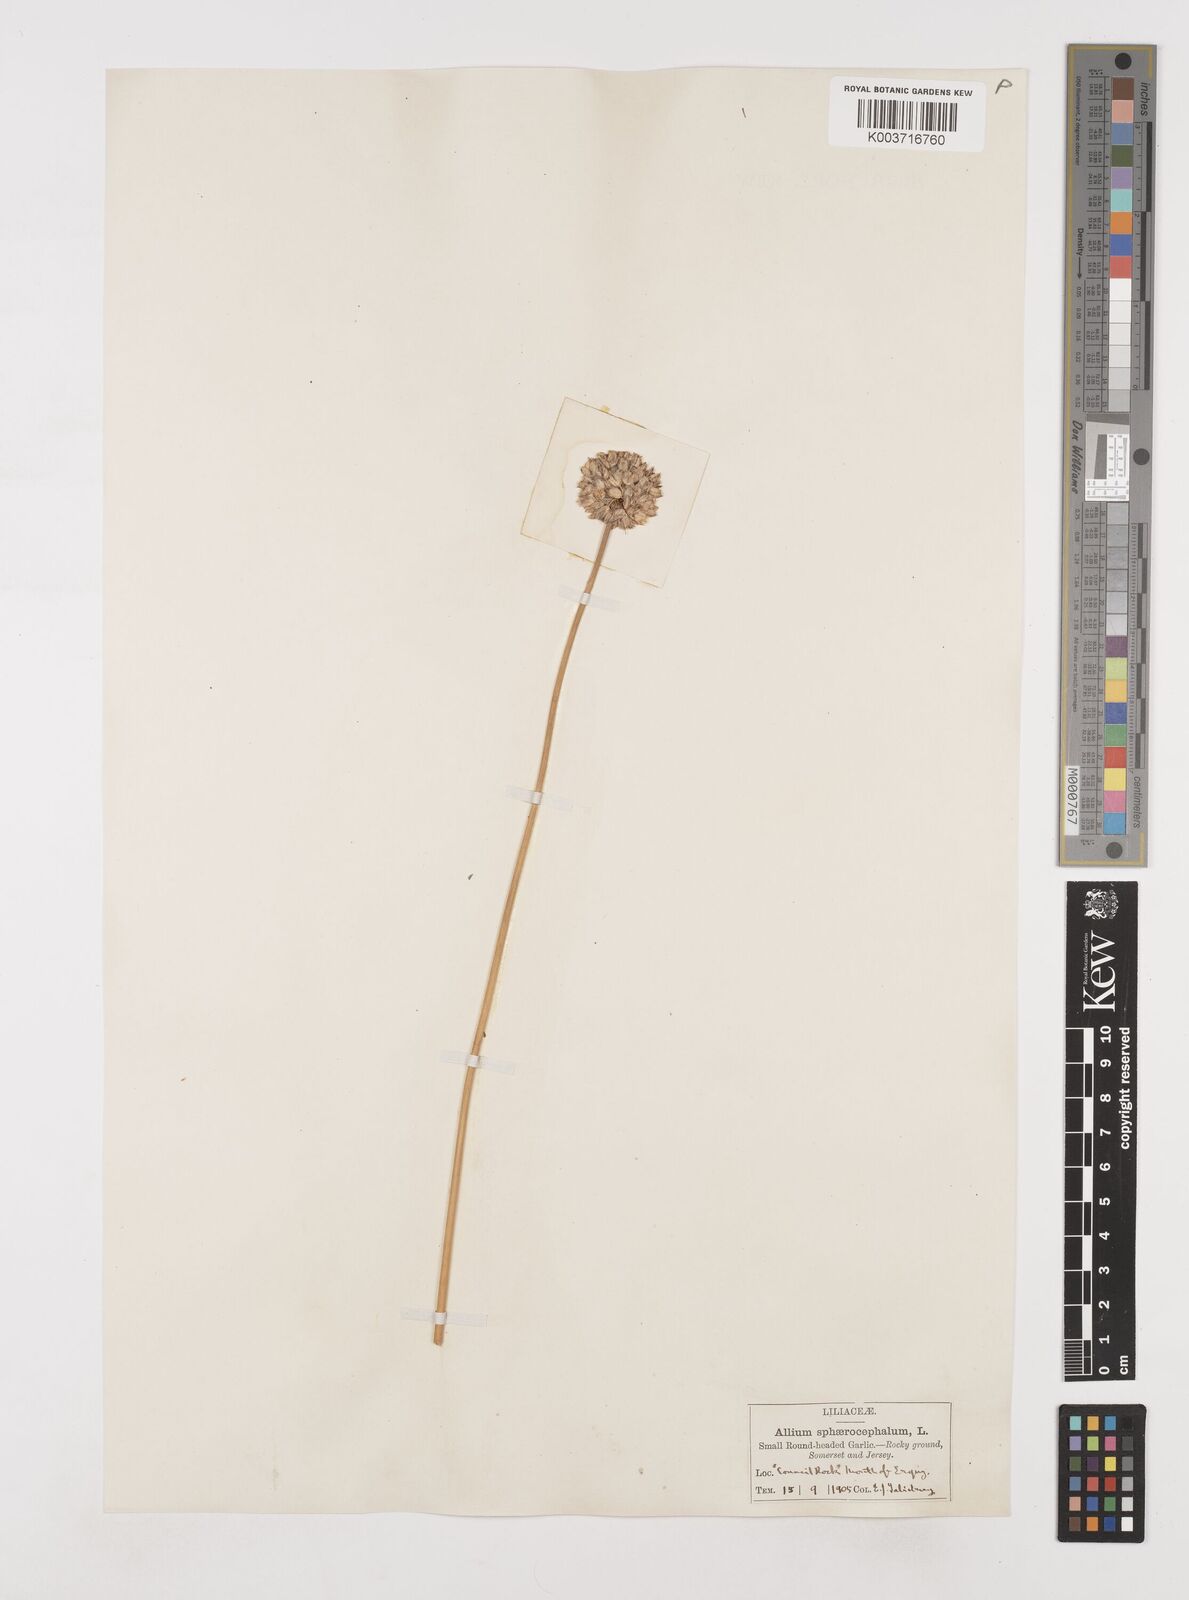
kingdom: Plantae
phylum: Tracheophyta
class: Liliopsida
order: Asparagales
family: Amaryllidaceae
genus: Allium
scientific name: Allium sphaerocephalon
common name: Round-headed leek
